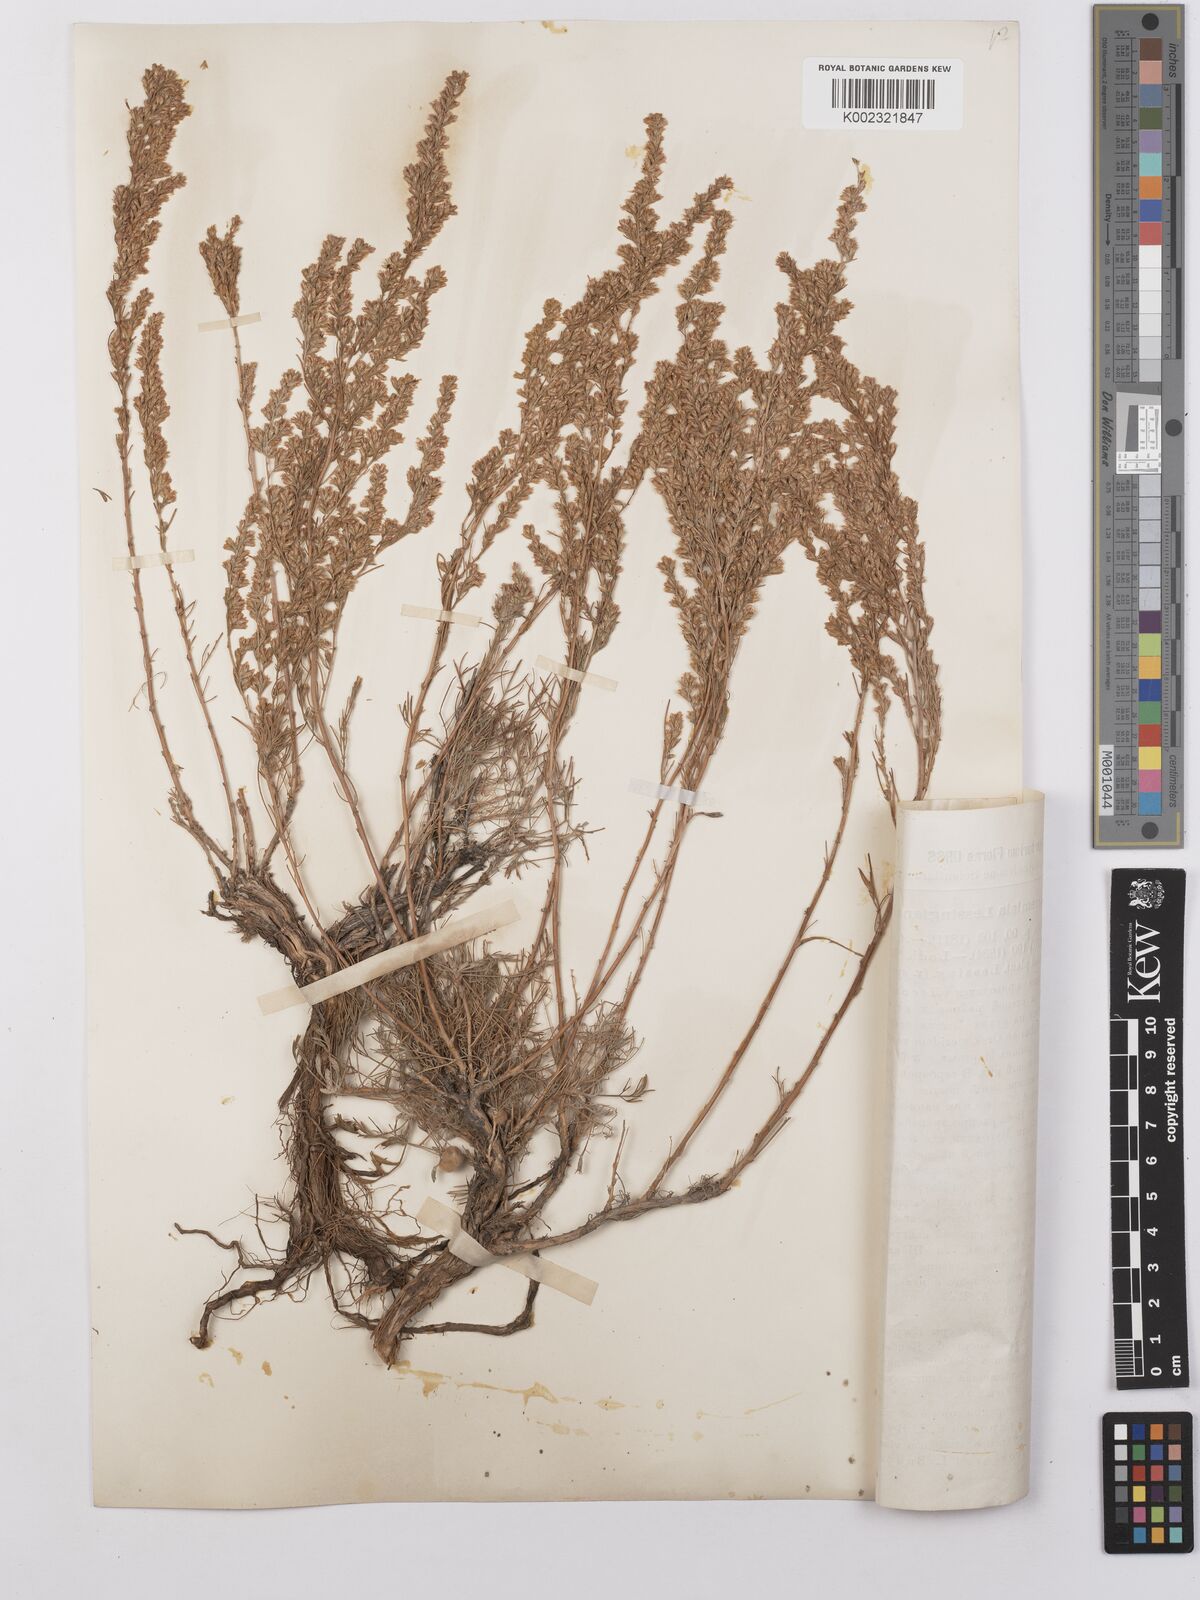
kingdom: Plantae
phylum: Tracheophyta
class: Magnoliopsida
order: Asterales
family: Asteraceae
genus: Artemisia
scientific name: Artemisia lessingiana
